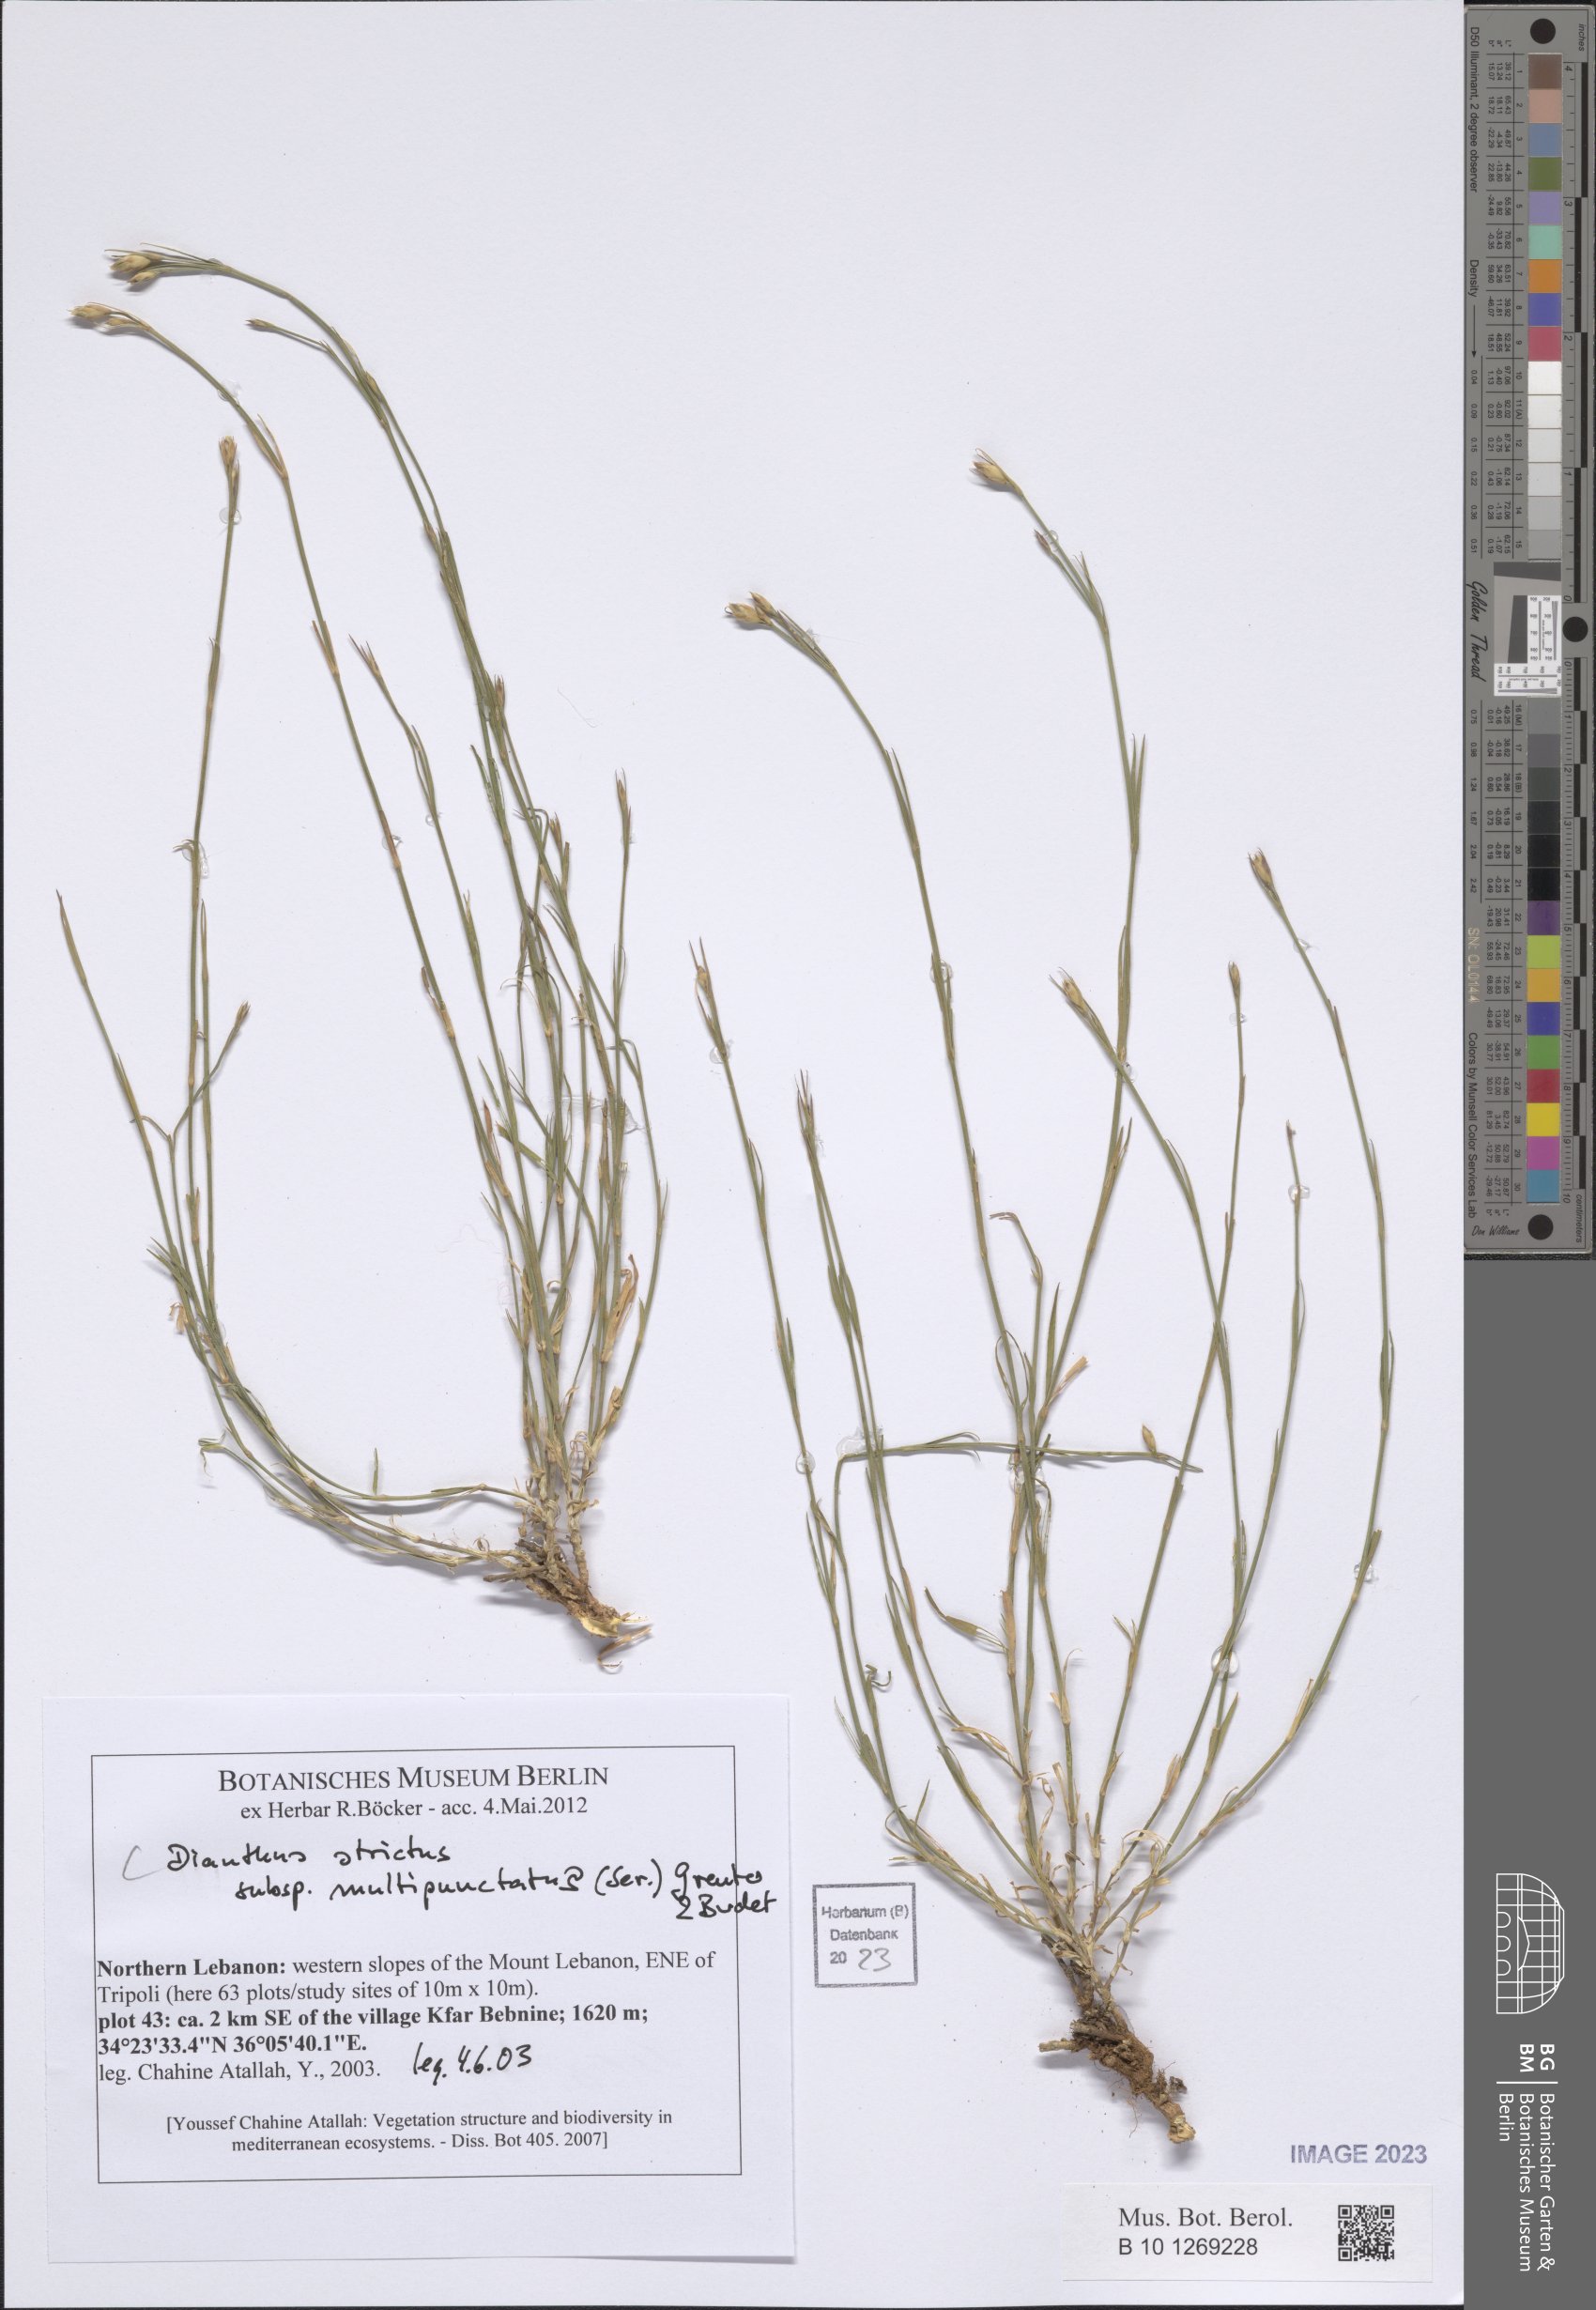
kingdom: Plantae
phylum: Tracheophyta
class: Magnoliopsida
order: Caryophyllales
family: Caryophyllaceae
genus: Dianthus
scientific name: Dianthus strictus
